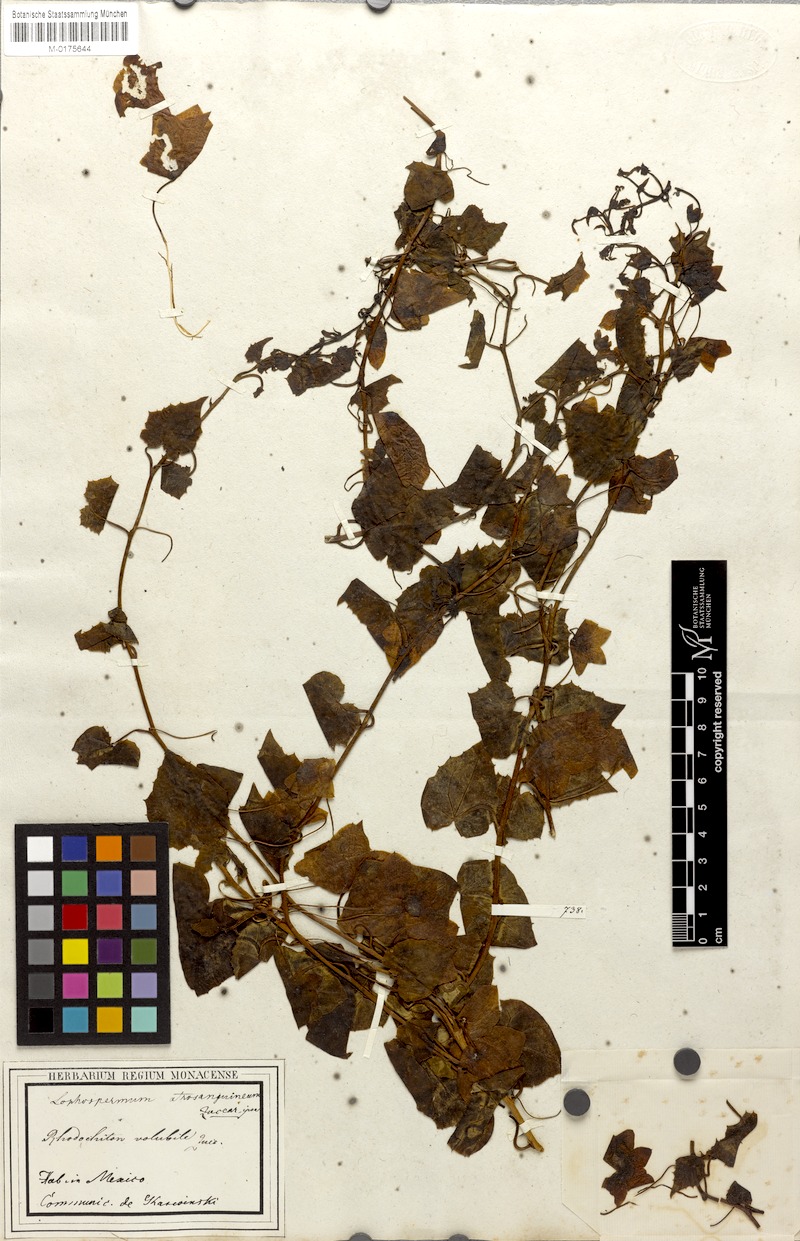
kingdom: Plantae
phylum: Tracheophyta
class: Magnoliopsida
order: Lamiales
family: Plantaginaceae
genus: Rhodochiton
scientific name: Rhodochiton atrosanguineus
